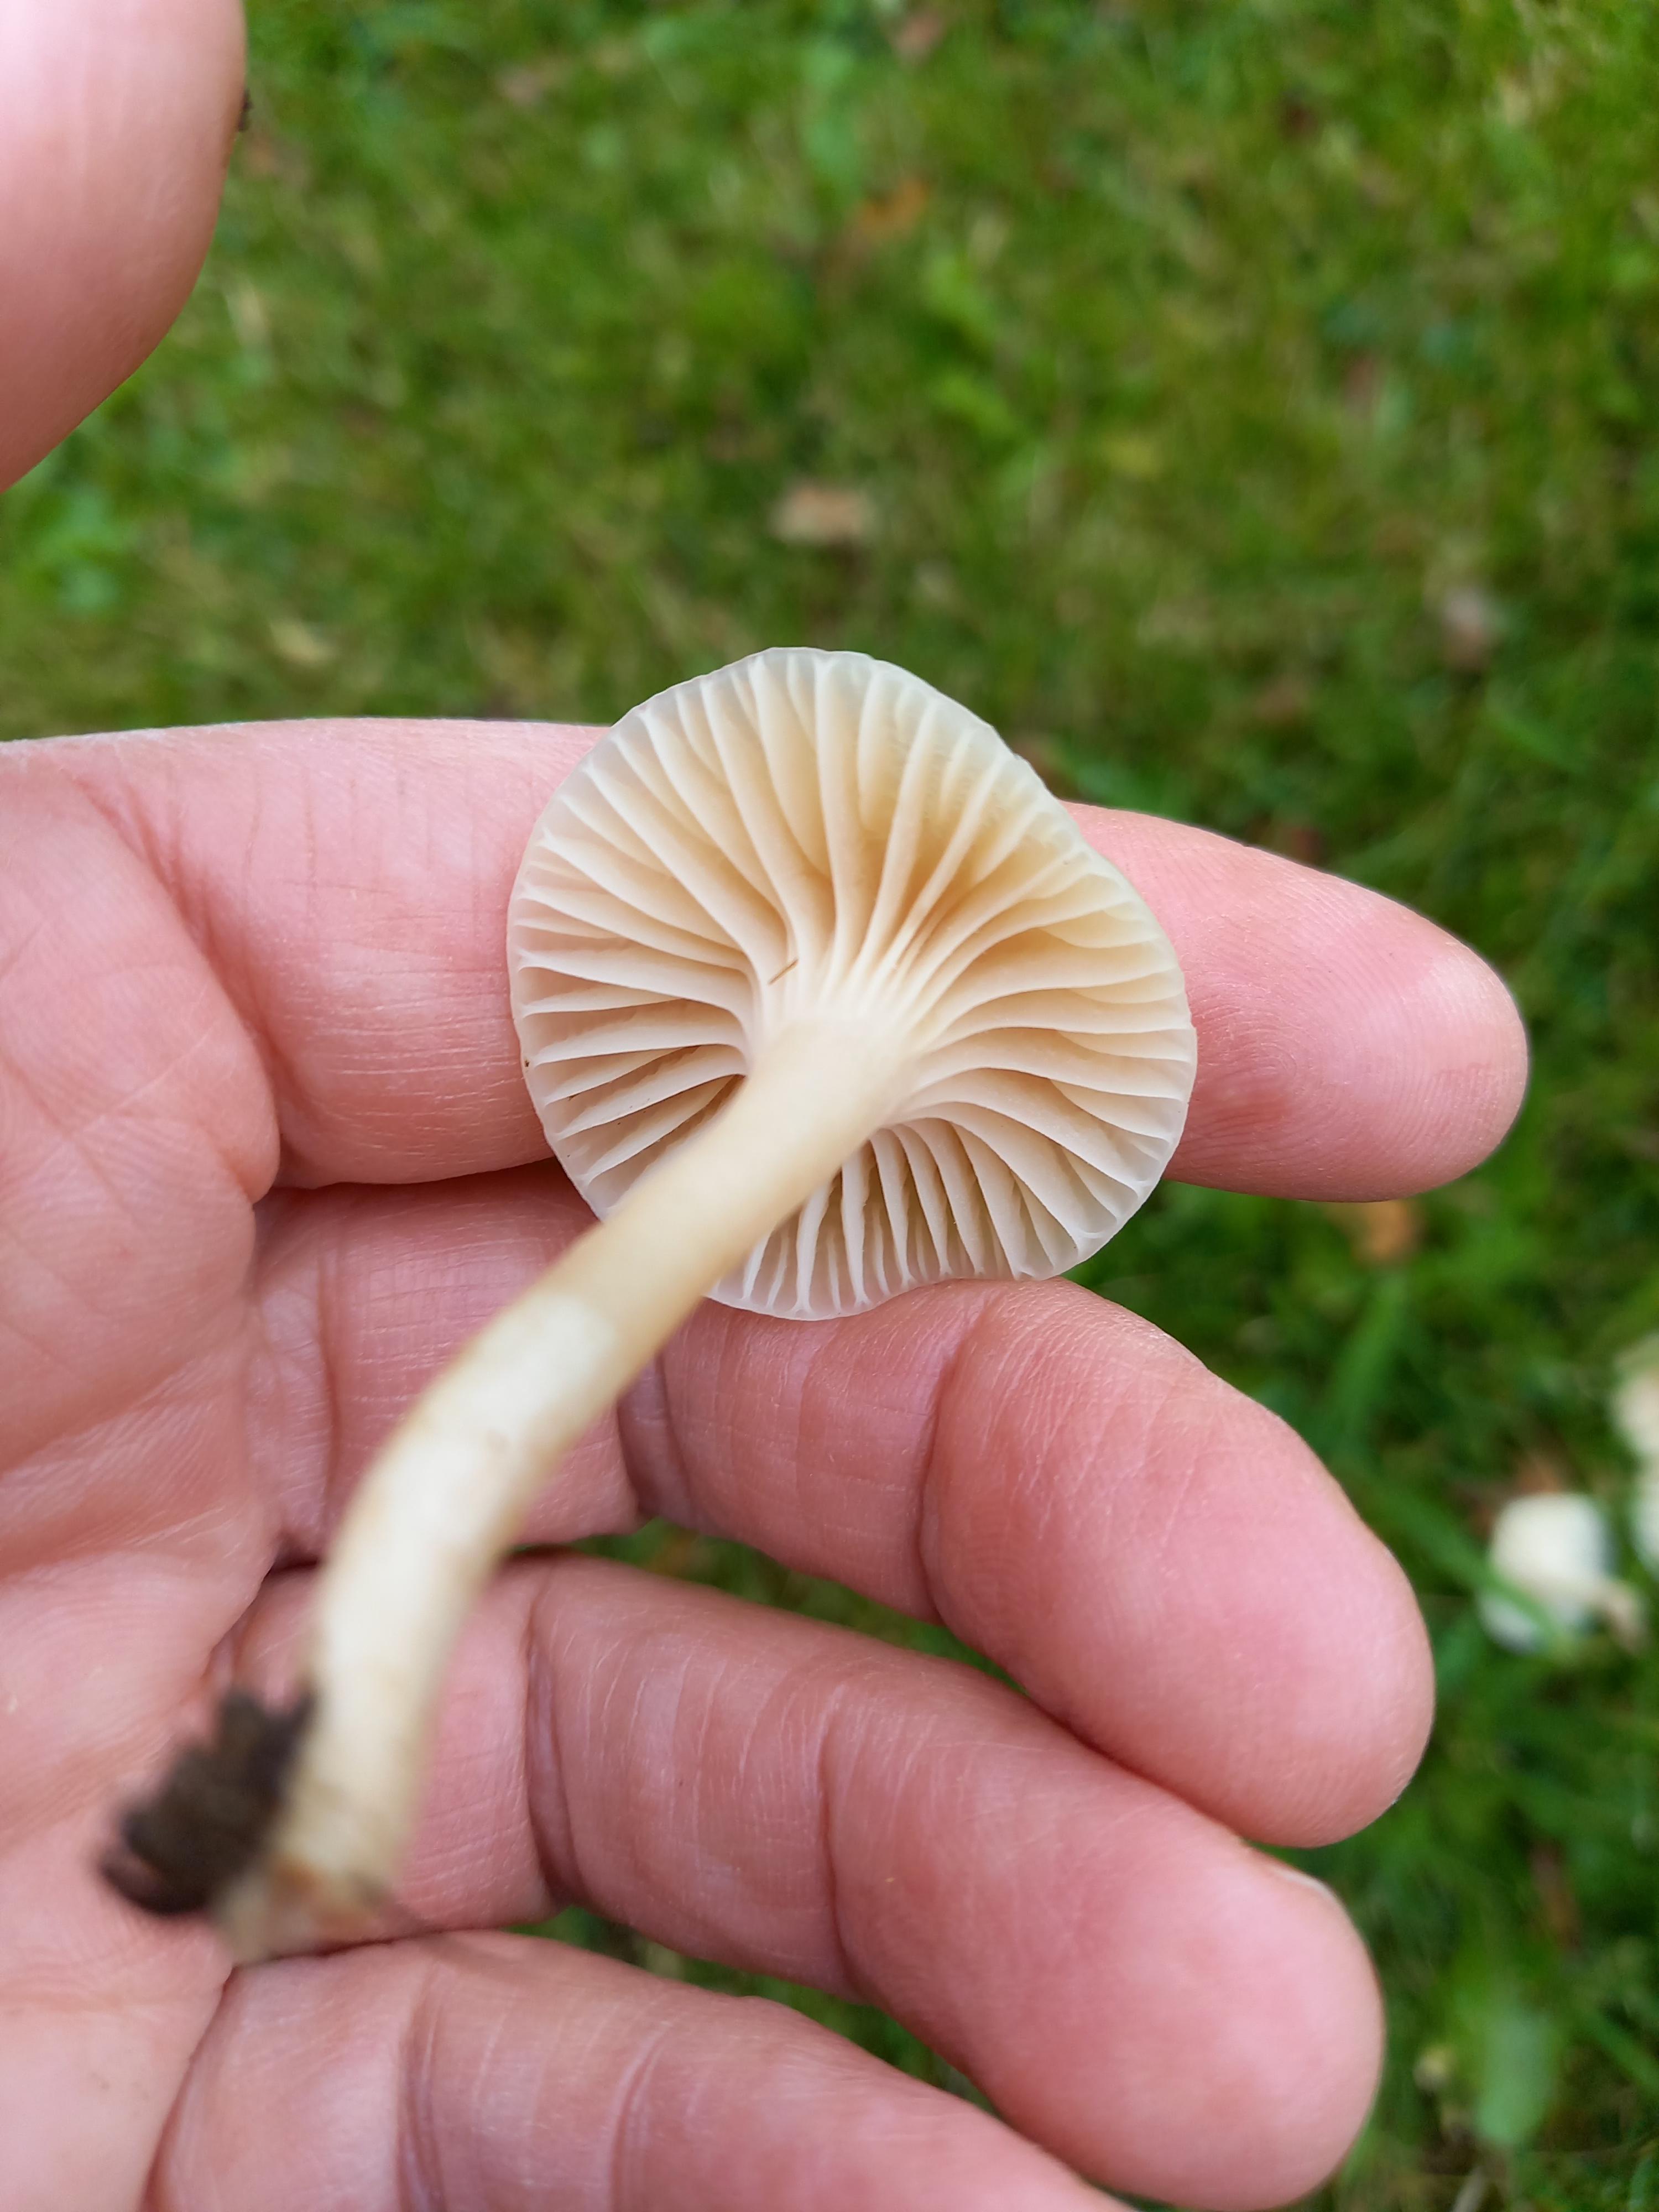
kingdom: Fungi
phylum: Basidiomycota
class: Agaricomycetes
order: Agaricales
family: Hygrophoraceae
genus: Cuphophyllus
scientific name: Cuphophyllus virgineus
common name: snehvid vokshat
